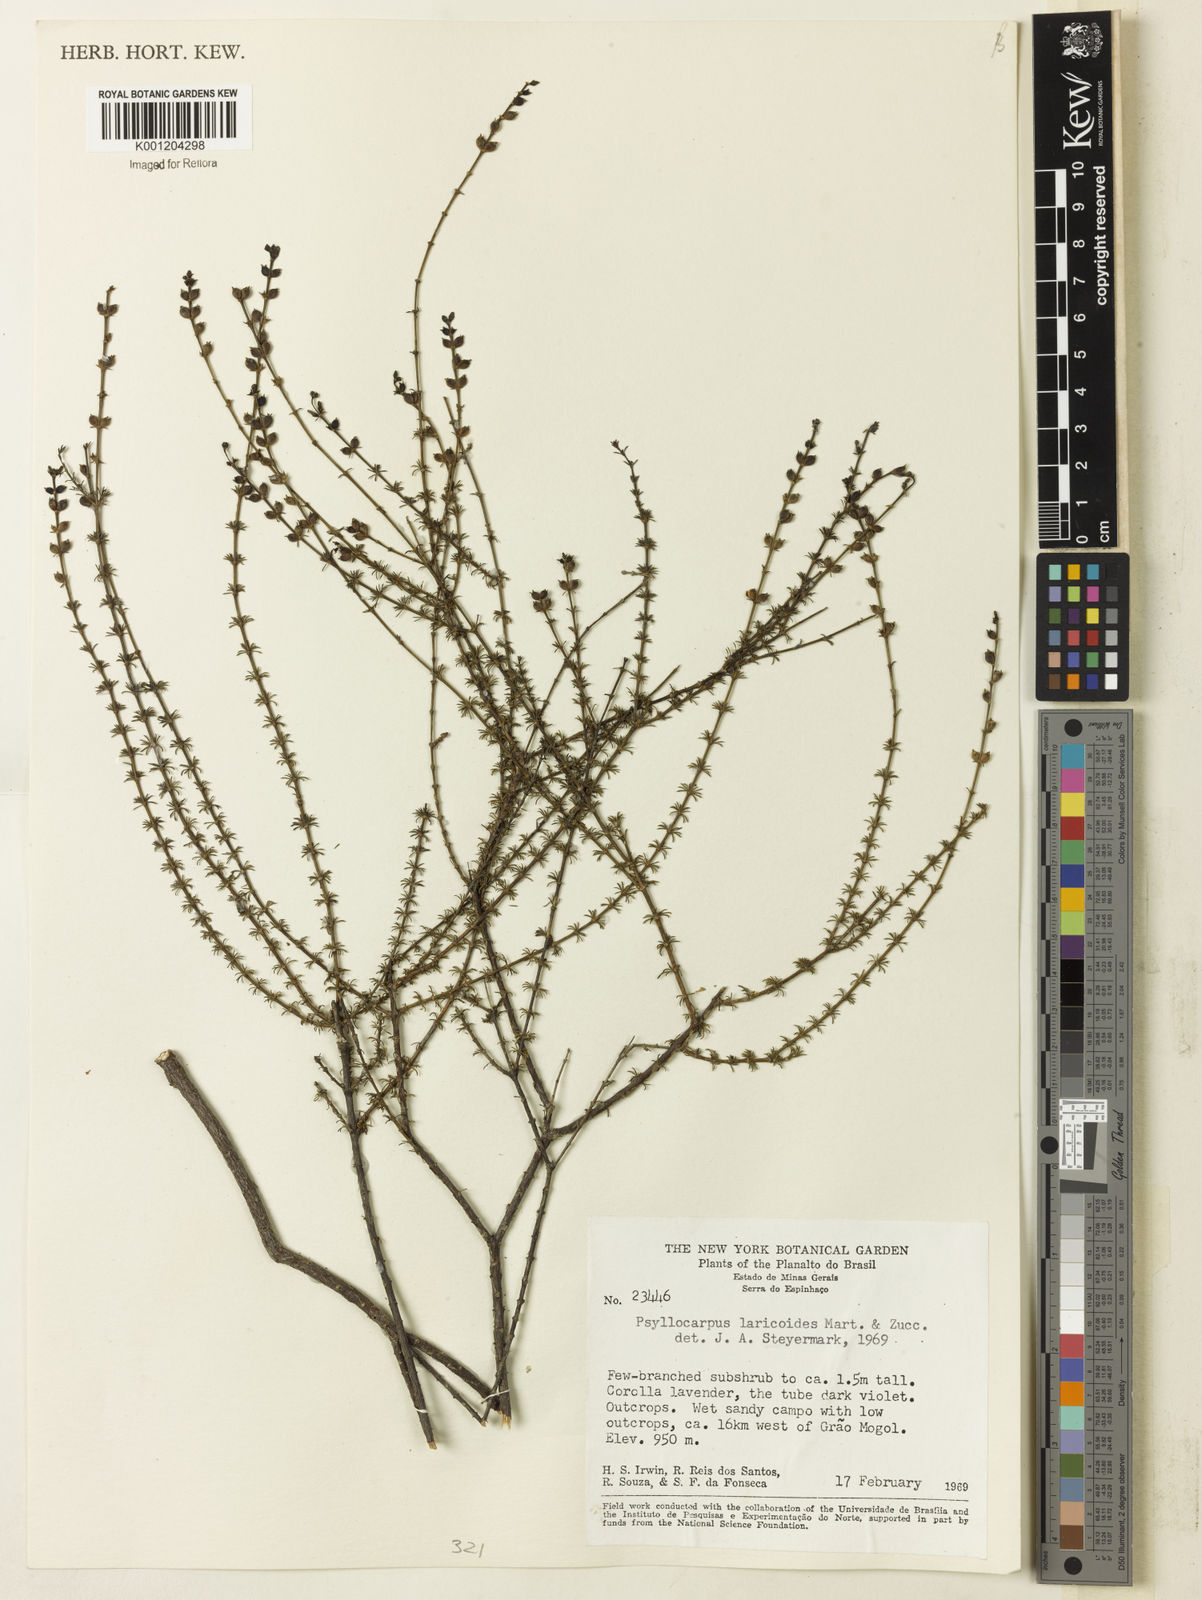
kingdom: Plantae
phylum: Tracheophyta
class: Magnoliopsida
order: Gentianales
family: Rubiaceae
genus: Psyllocarpus
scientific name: Psyllocarpus laricoides
